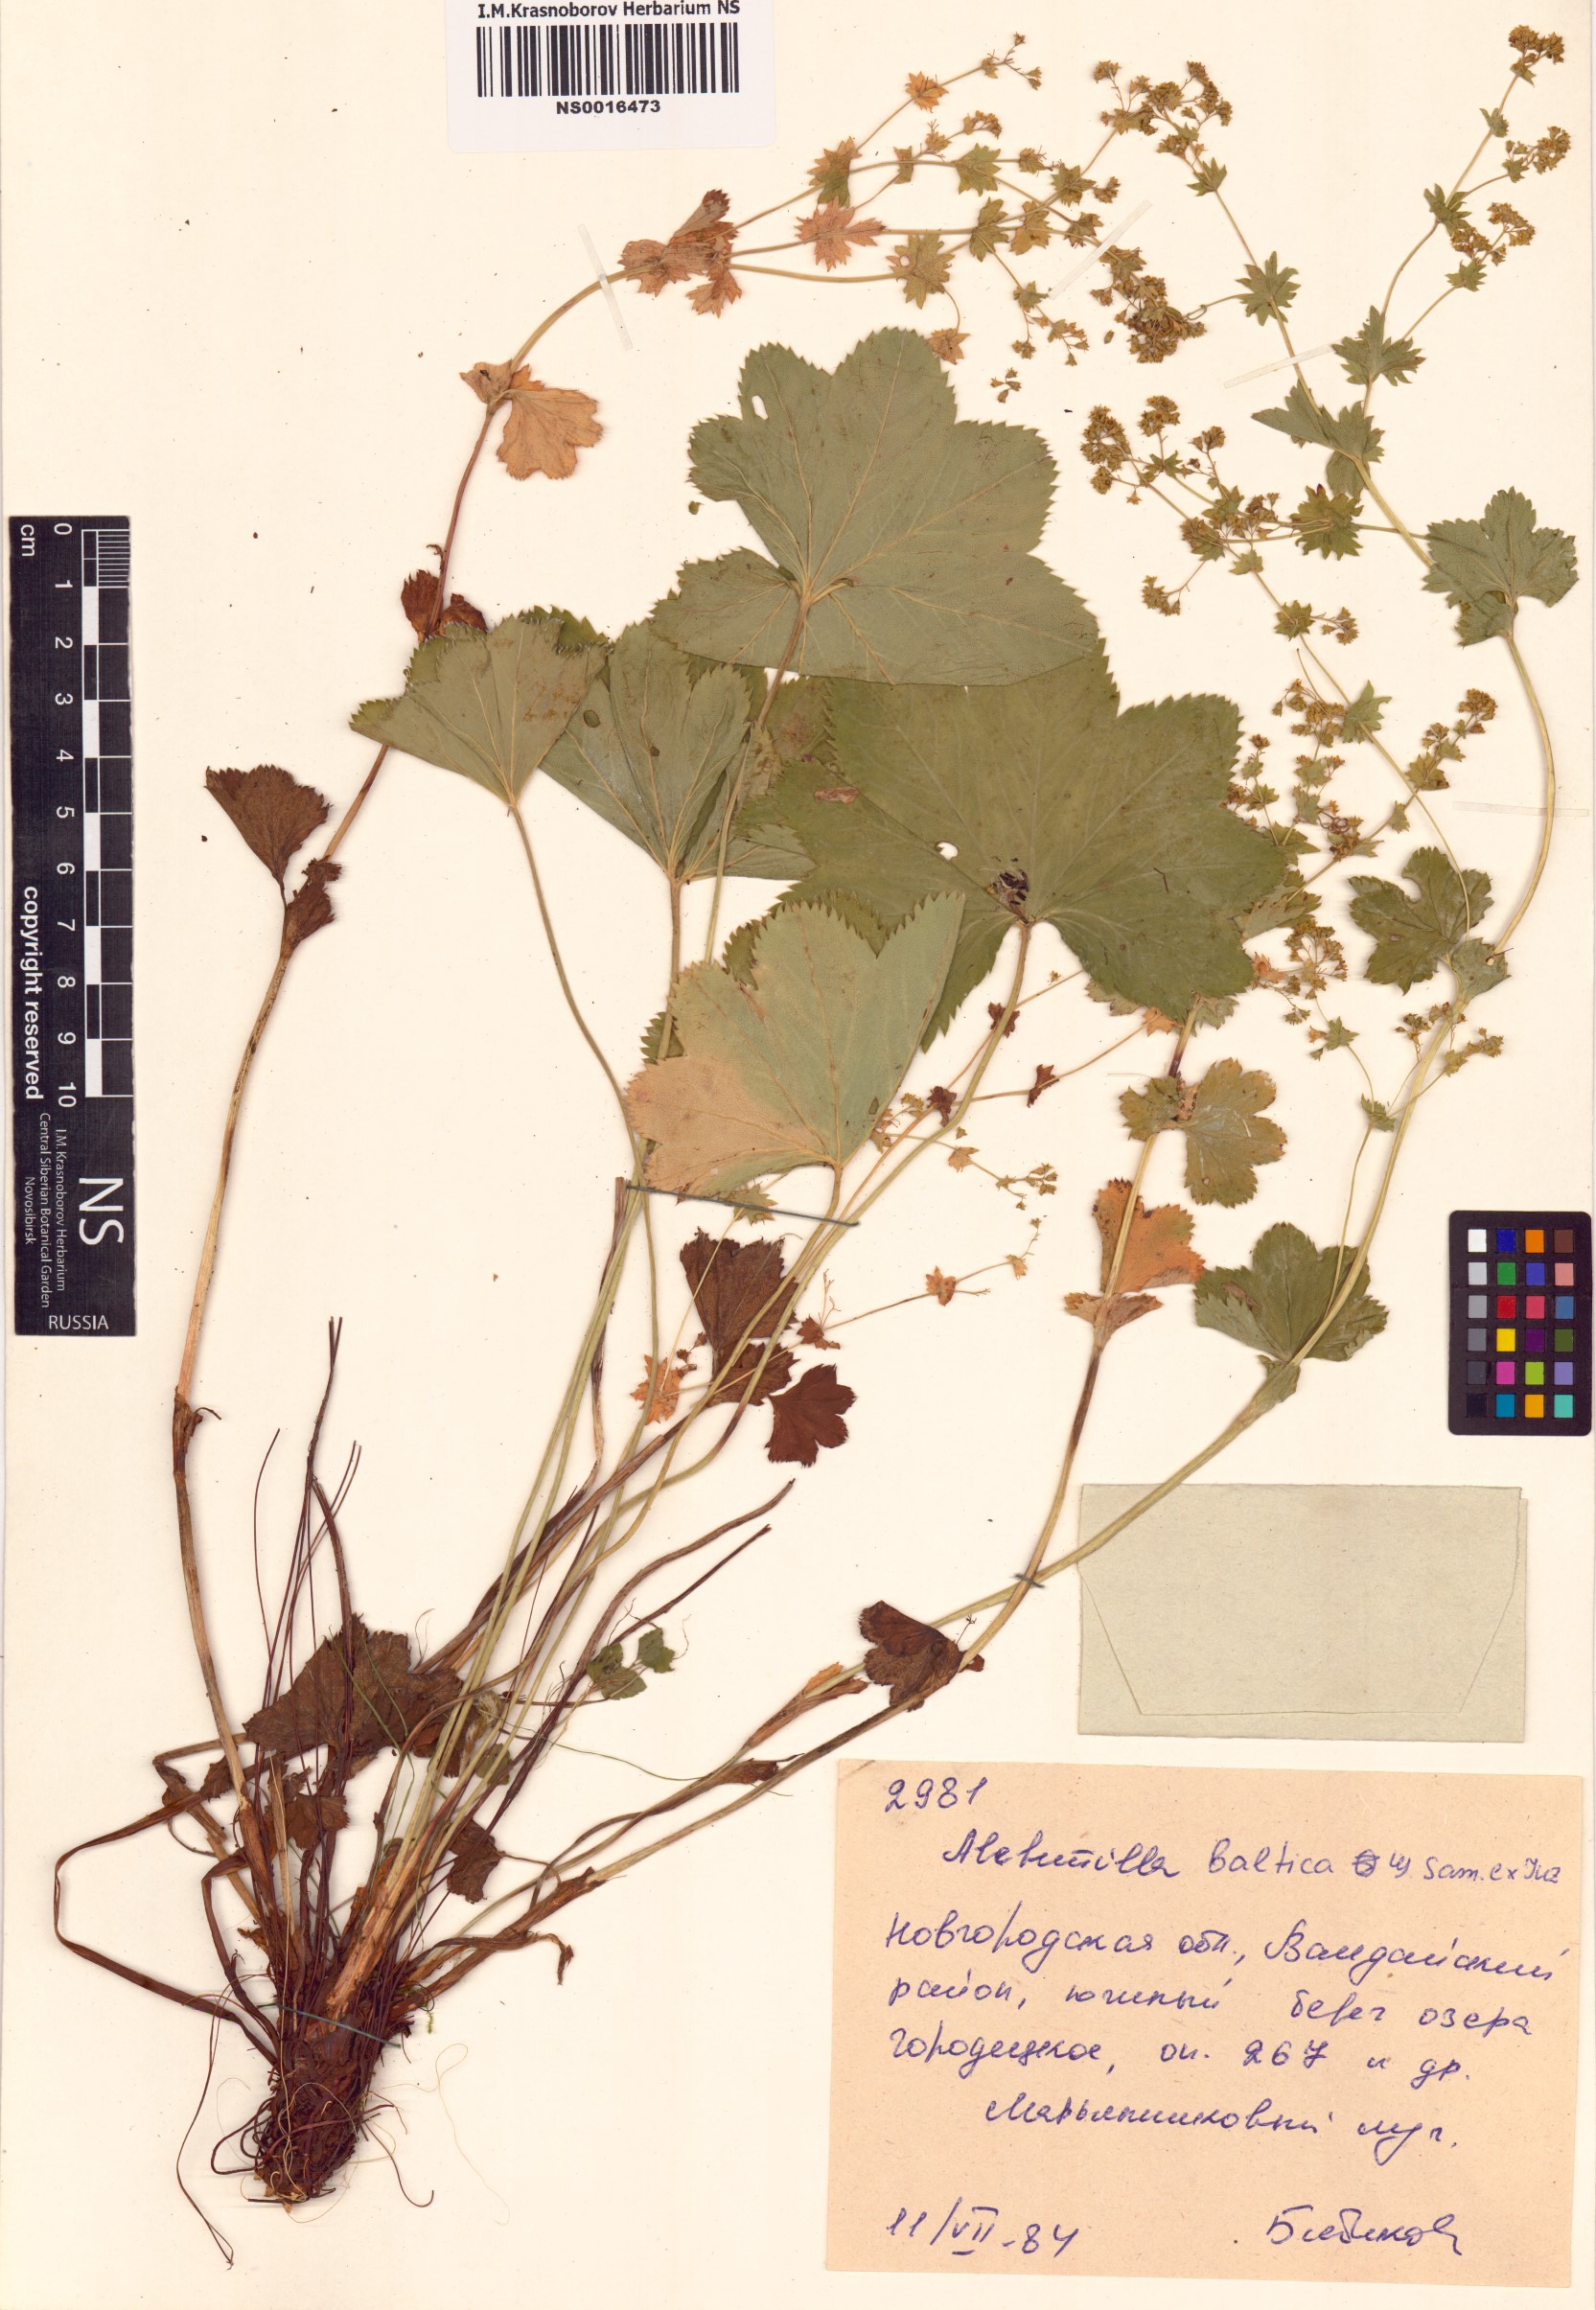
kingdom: Plantae
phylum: Tracheophyta
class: Magnoliopsida
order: Rosales
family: Rosaceae
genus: Alchemilla
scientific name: Alchemilla baltica
